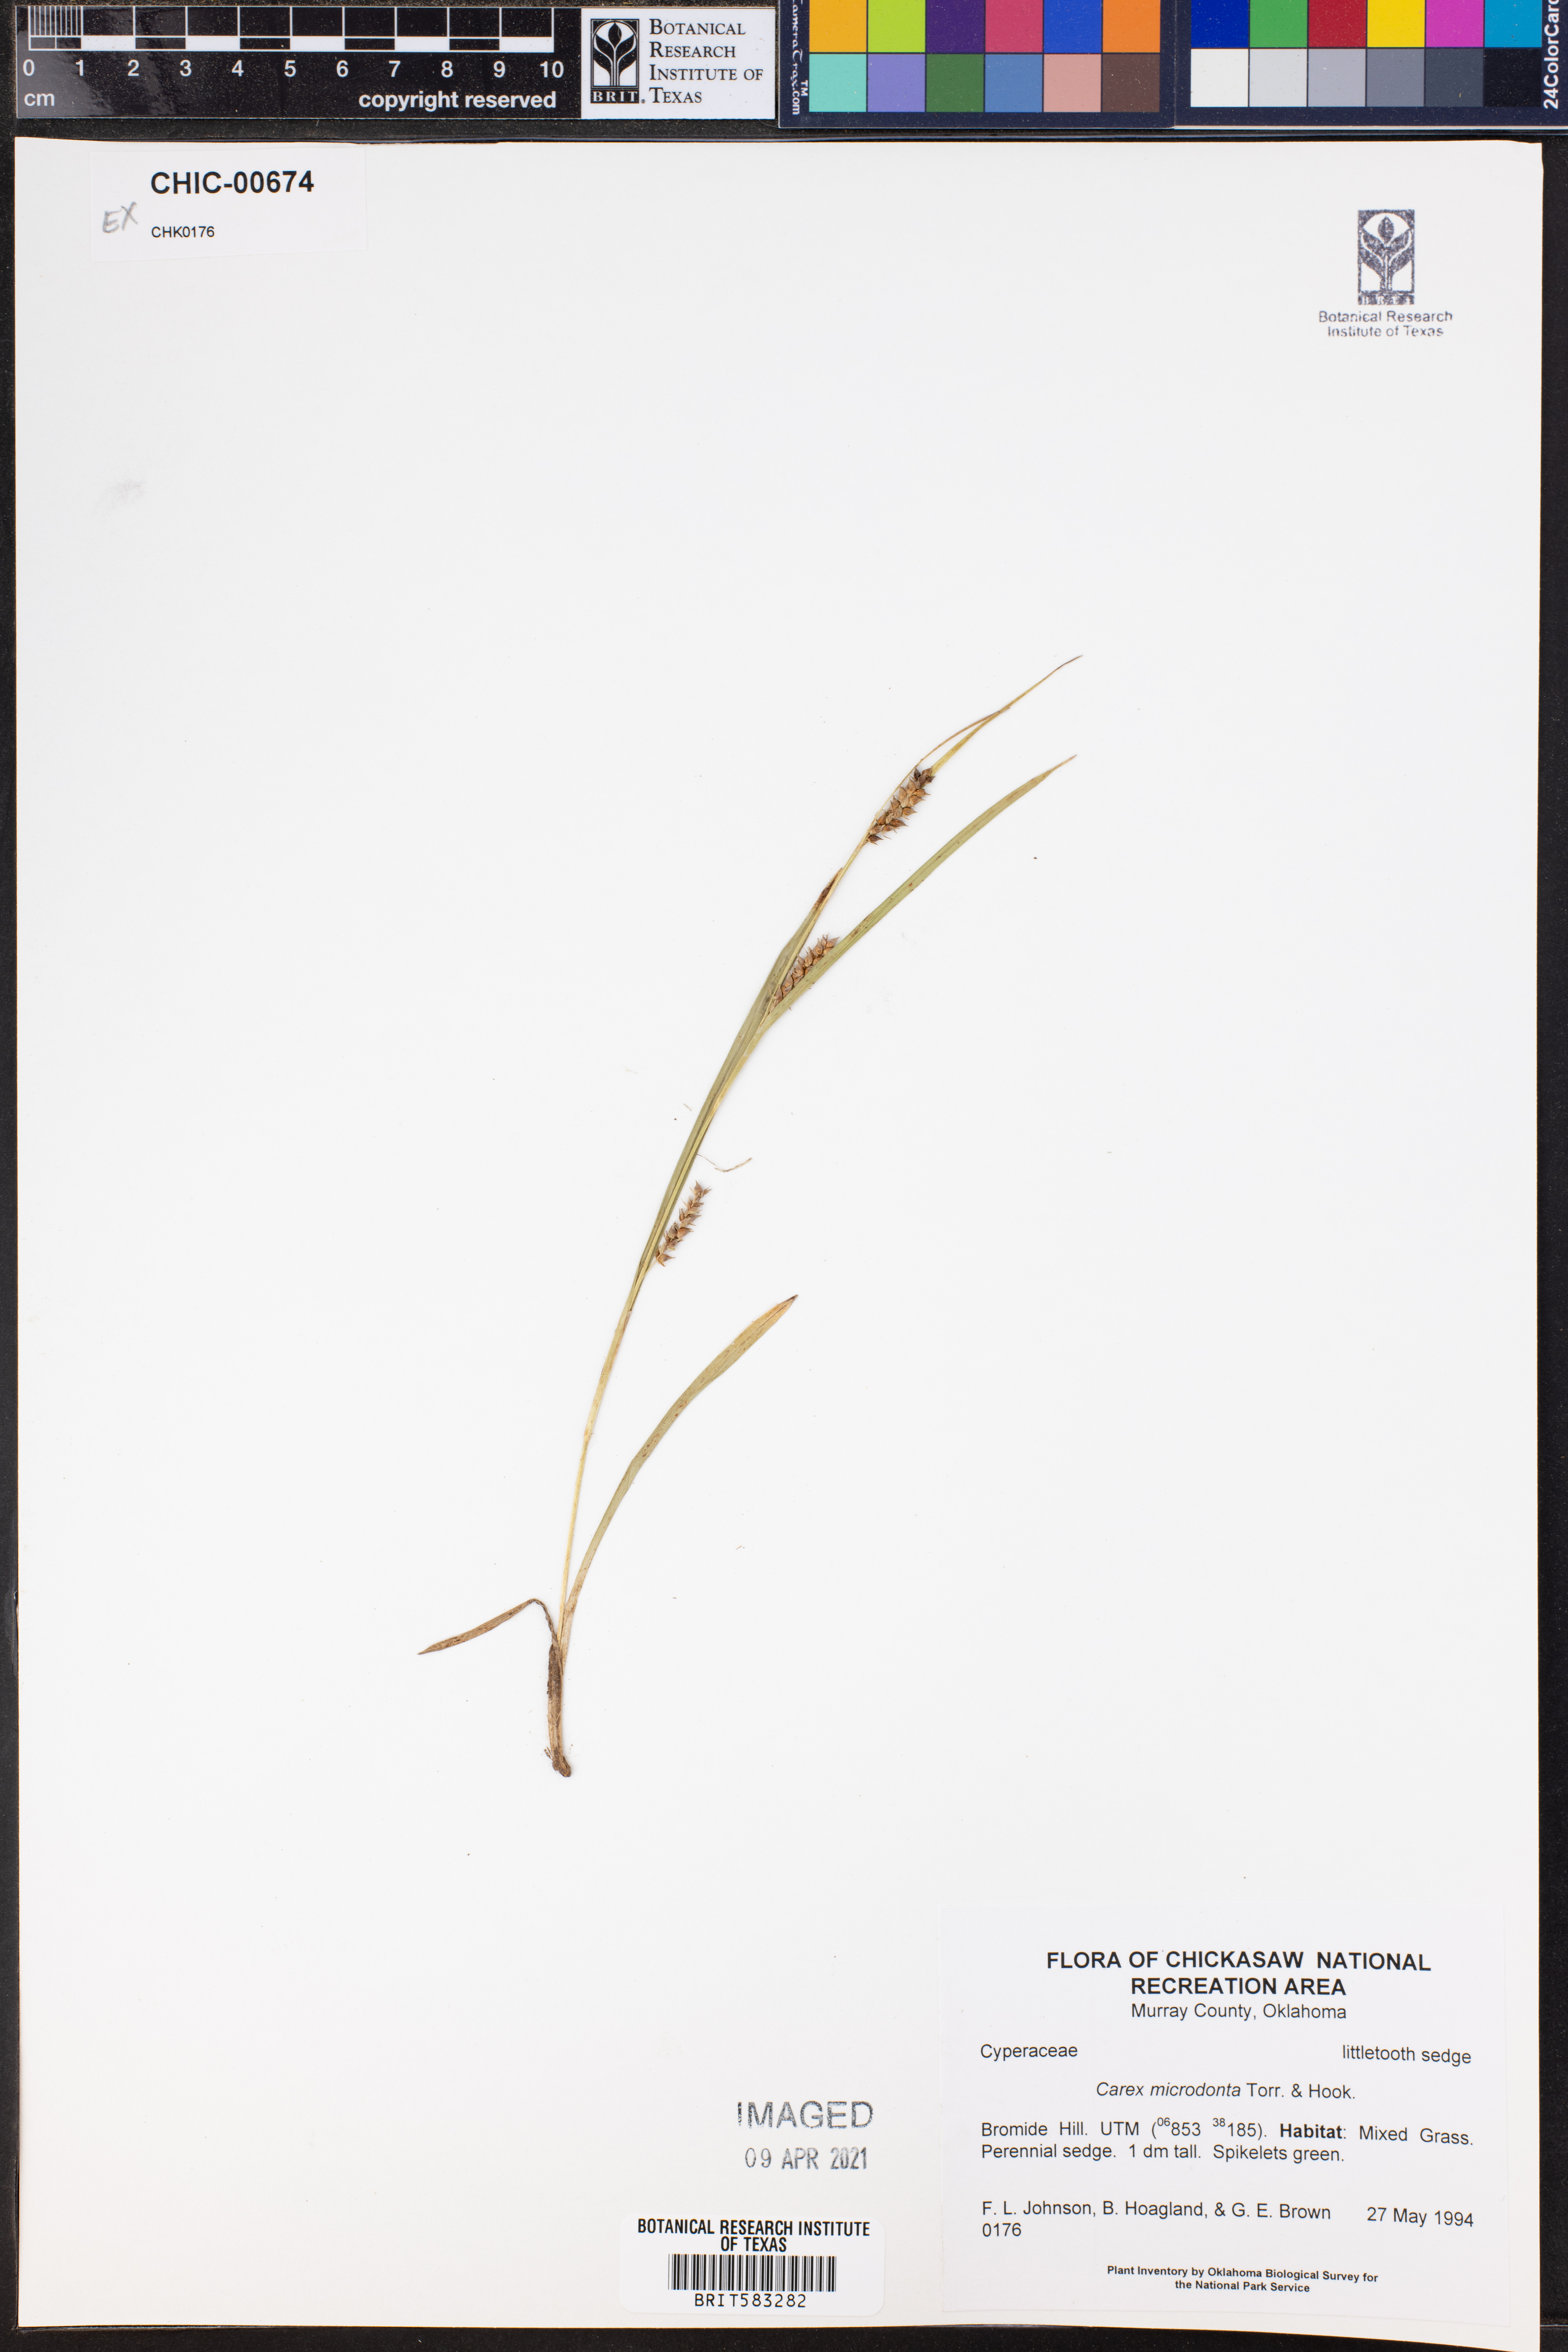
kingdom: Plantae
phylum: Tracheophyta
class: Liliopsida
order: Poales
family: Cyperaceae
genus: Carex
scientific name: Carex microdonta
